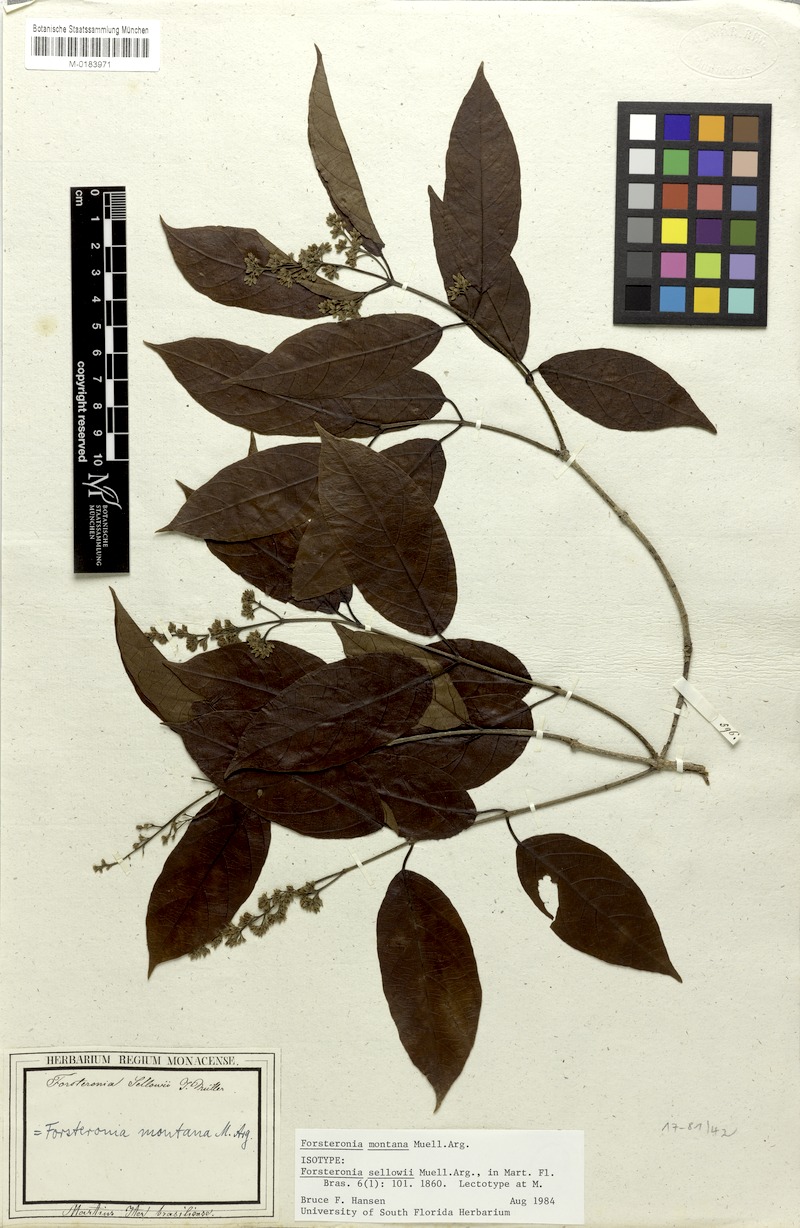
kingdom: Plantae
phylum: Tracheophyta
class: Magnoliopsida
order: Gentianales
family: Apocynaceae
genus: Forsteronia
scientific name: Forsteronia montana
